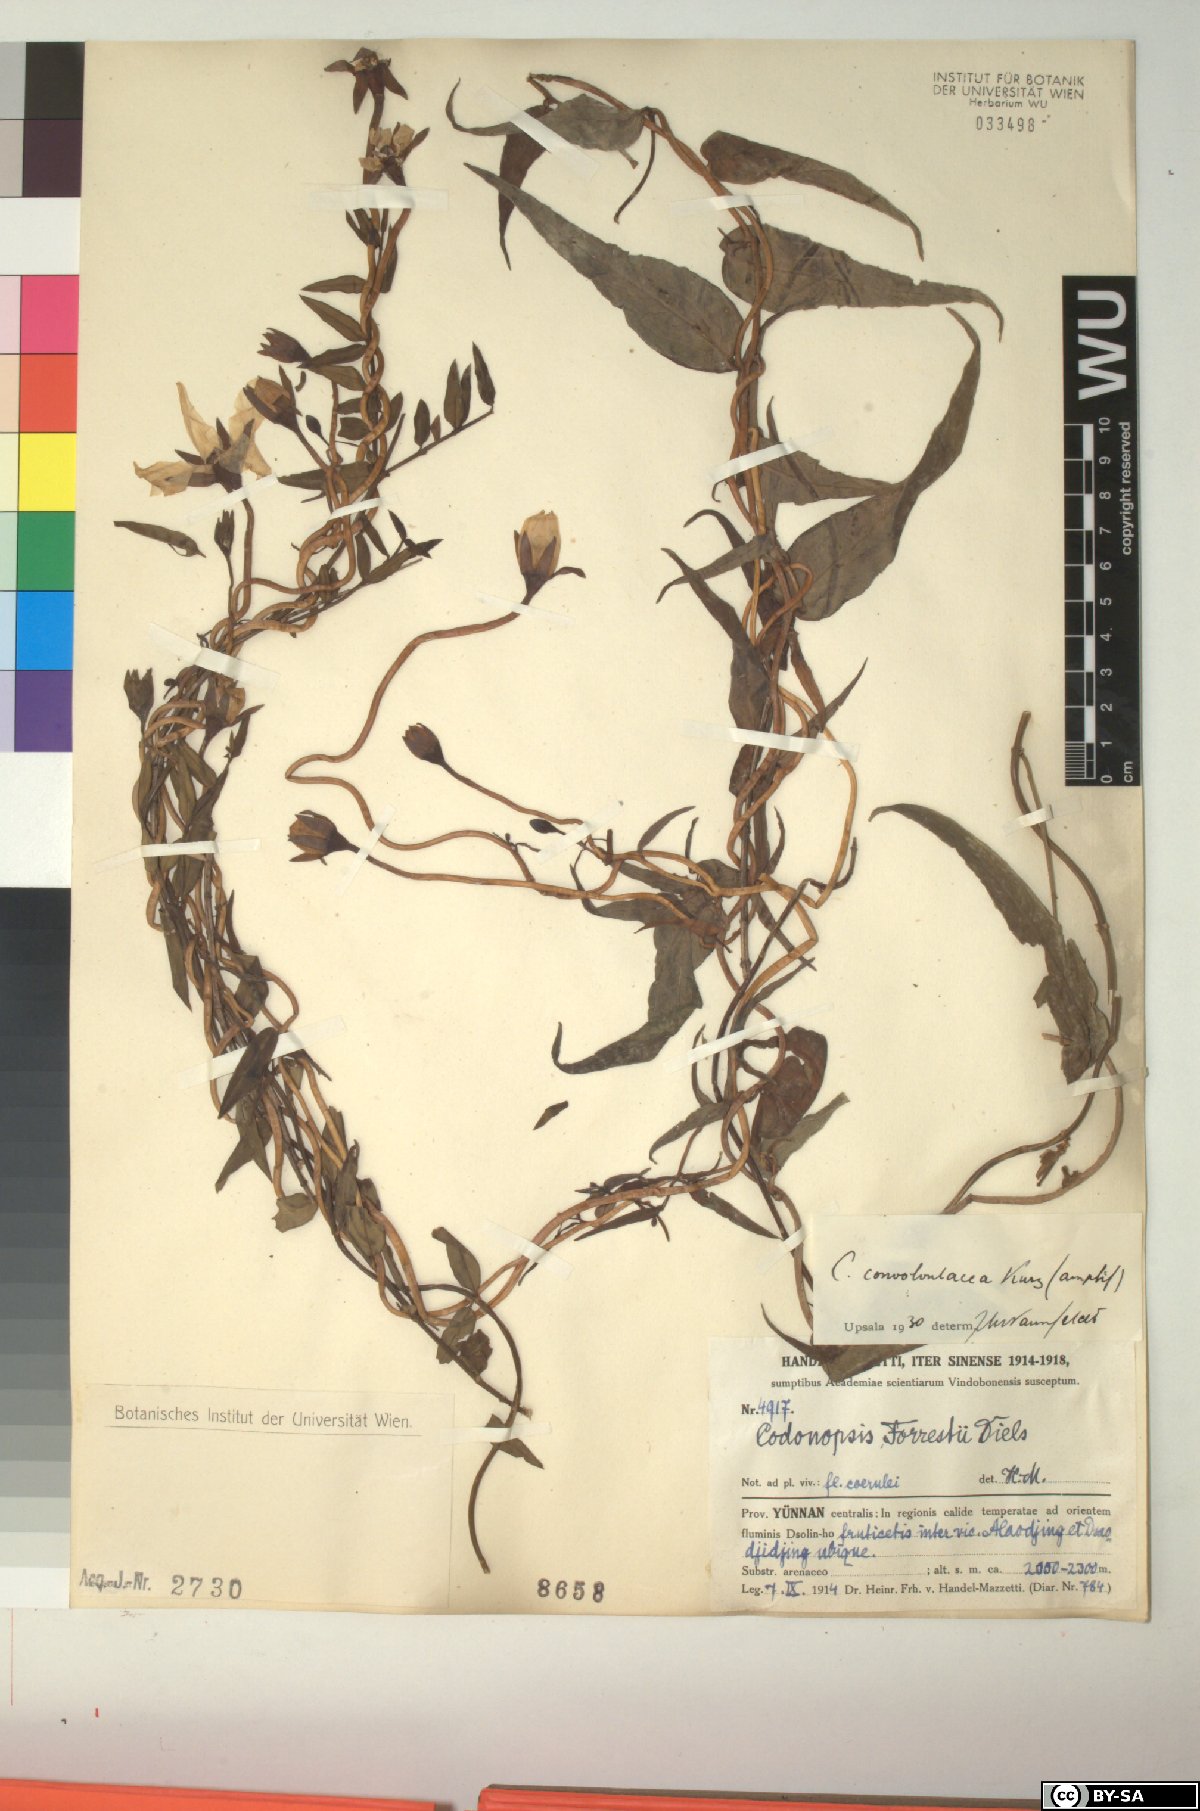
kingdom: Plantae
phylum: Tracheophyta
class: Magnoliopsida
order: Asterales
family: Campanulaceae
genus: Pseudocodon
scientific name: Pseudocodon convolvulaceus
